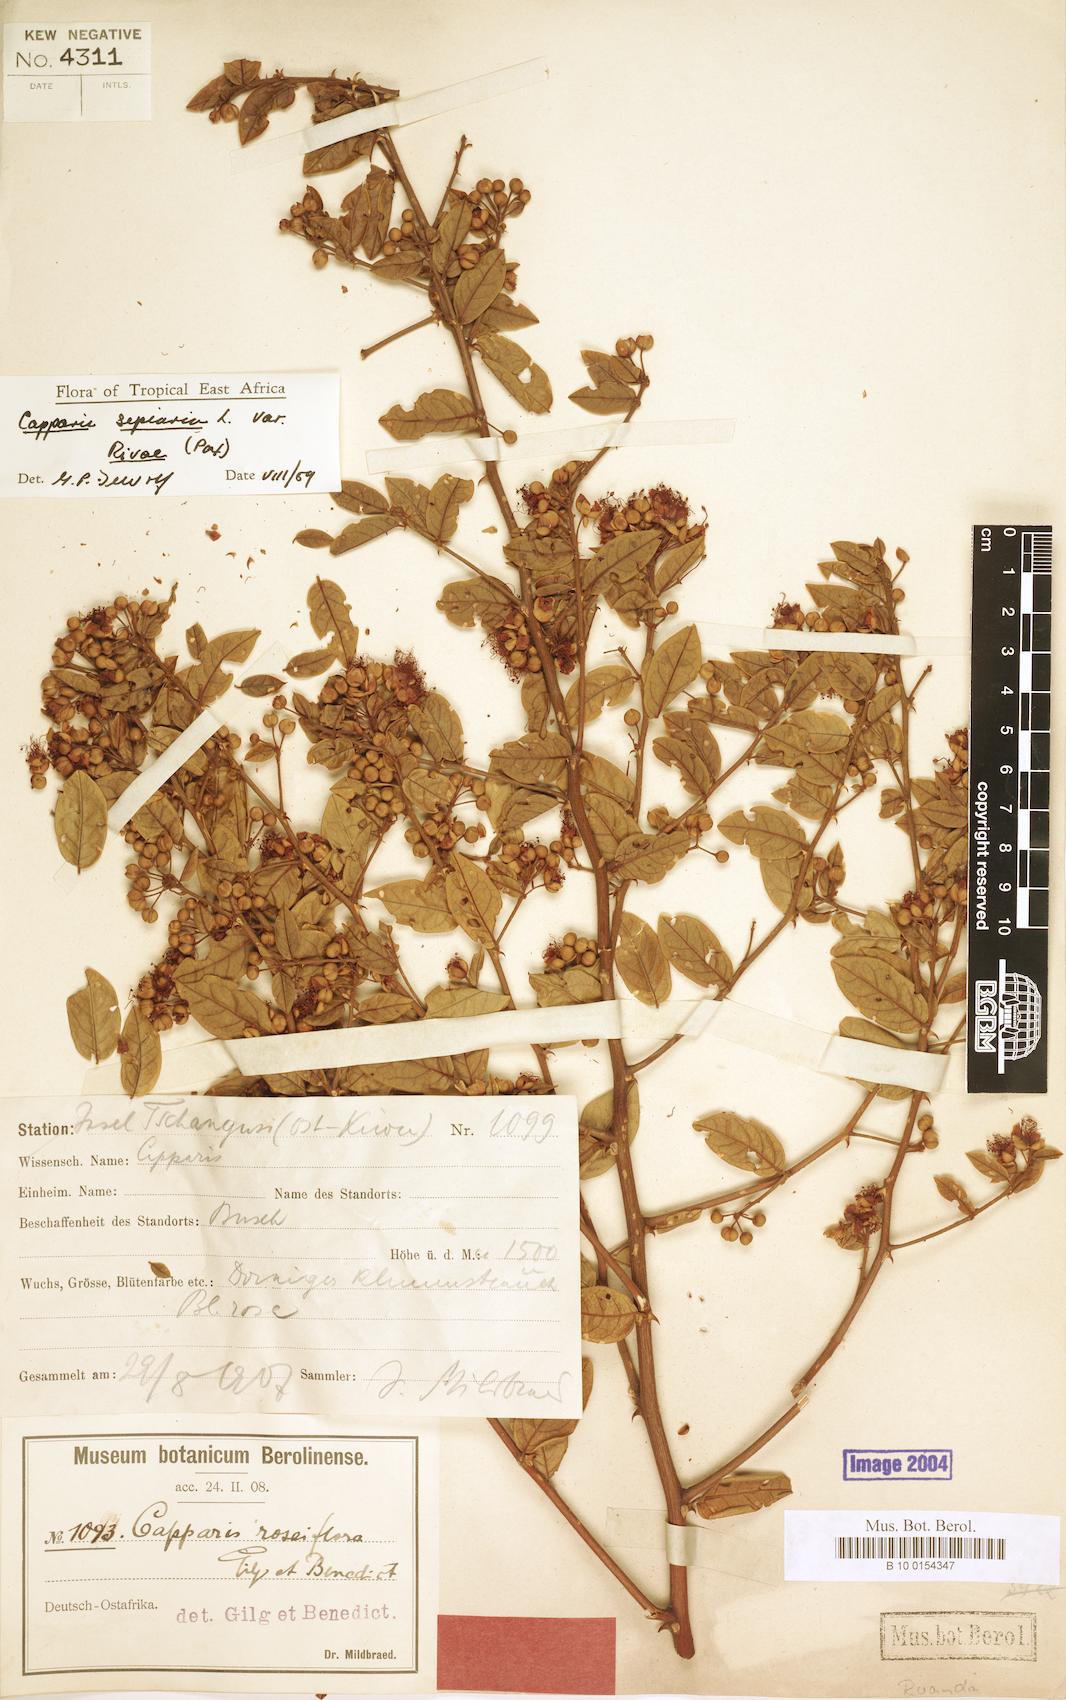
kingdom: Plantae
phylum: Tracheophyta
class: Magnoliopsida
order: Brassicales
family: Capparaceae
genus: Capparis
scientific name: Capparis sepiaria
